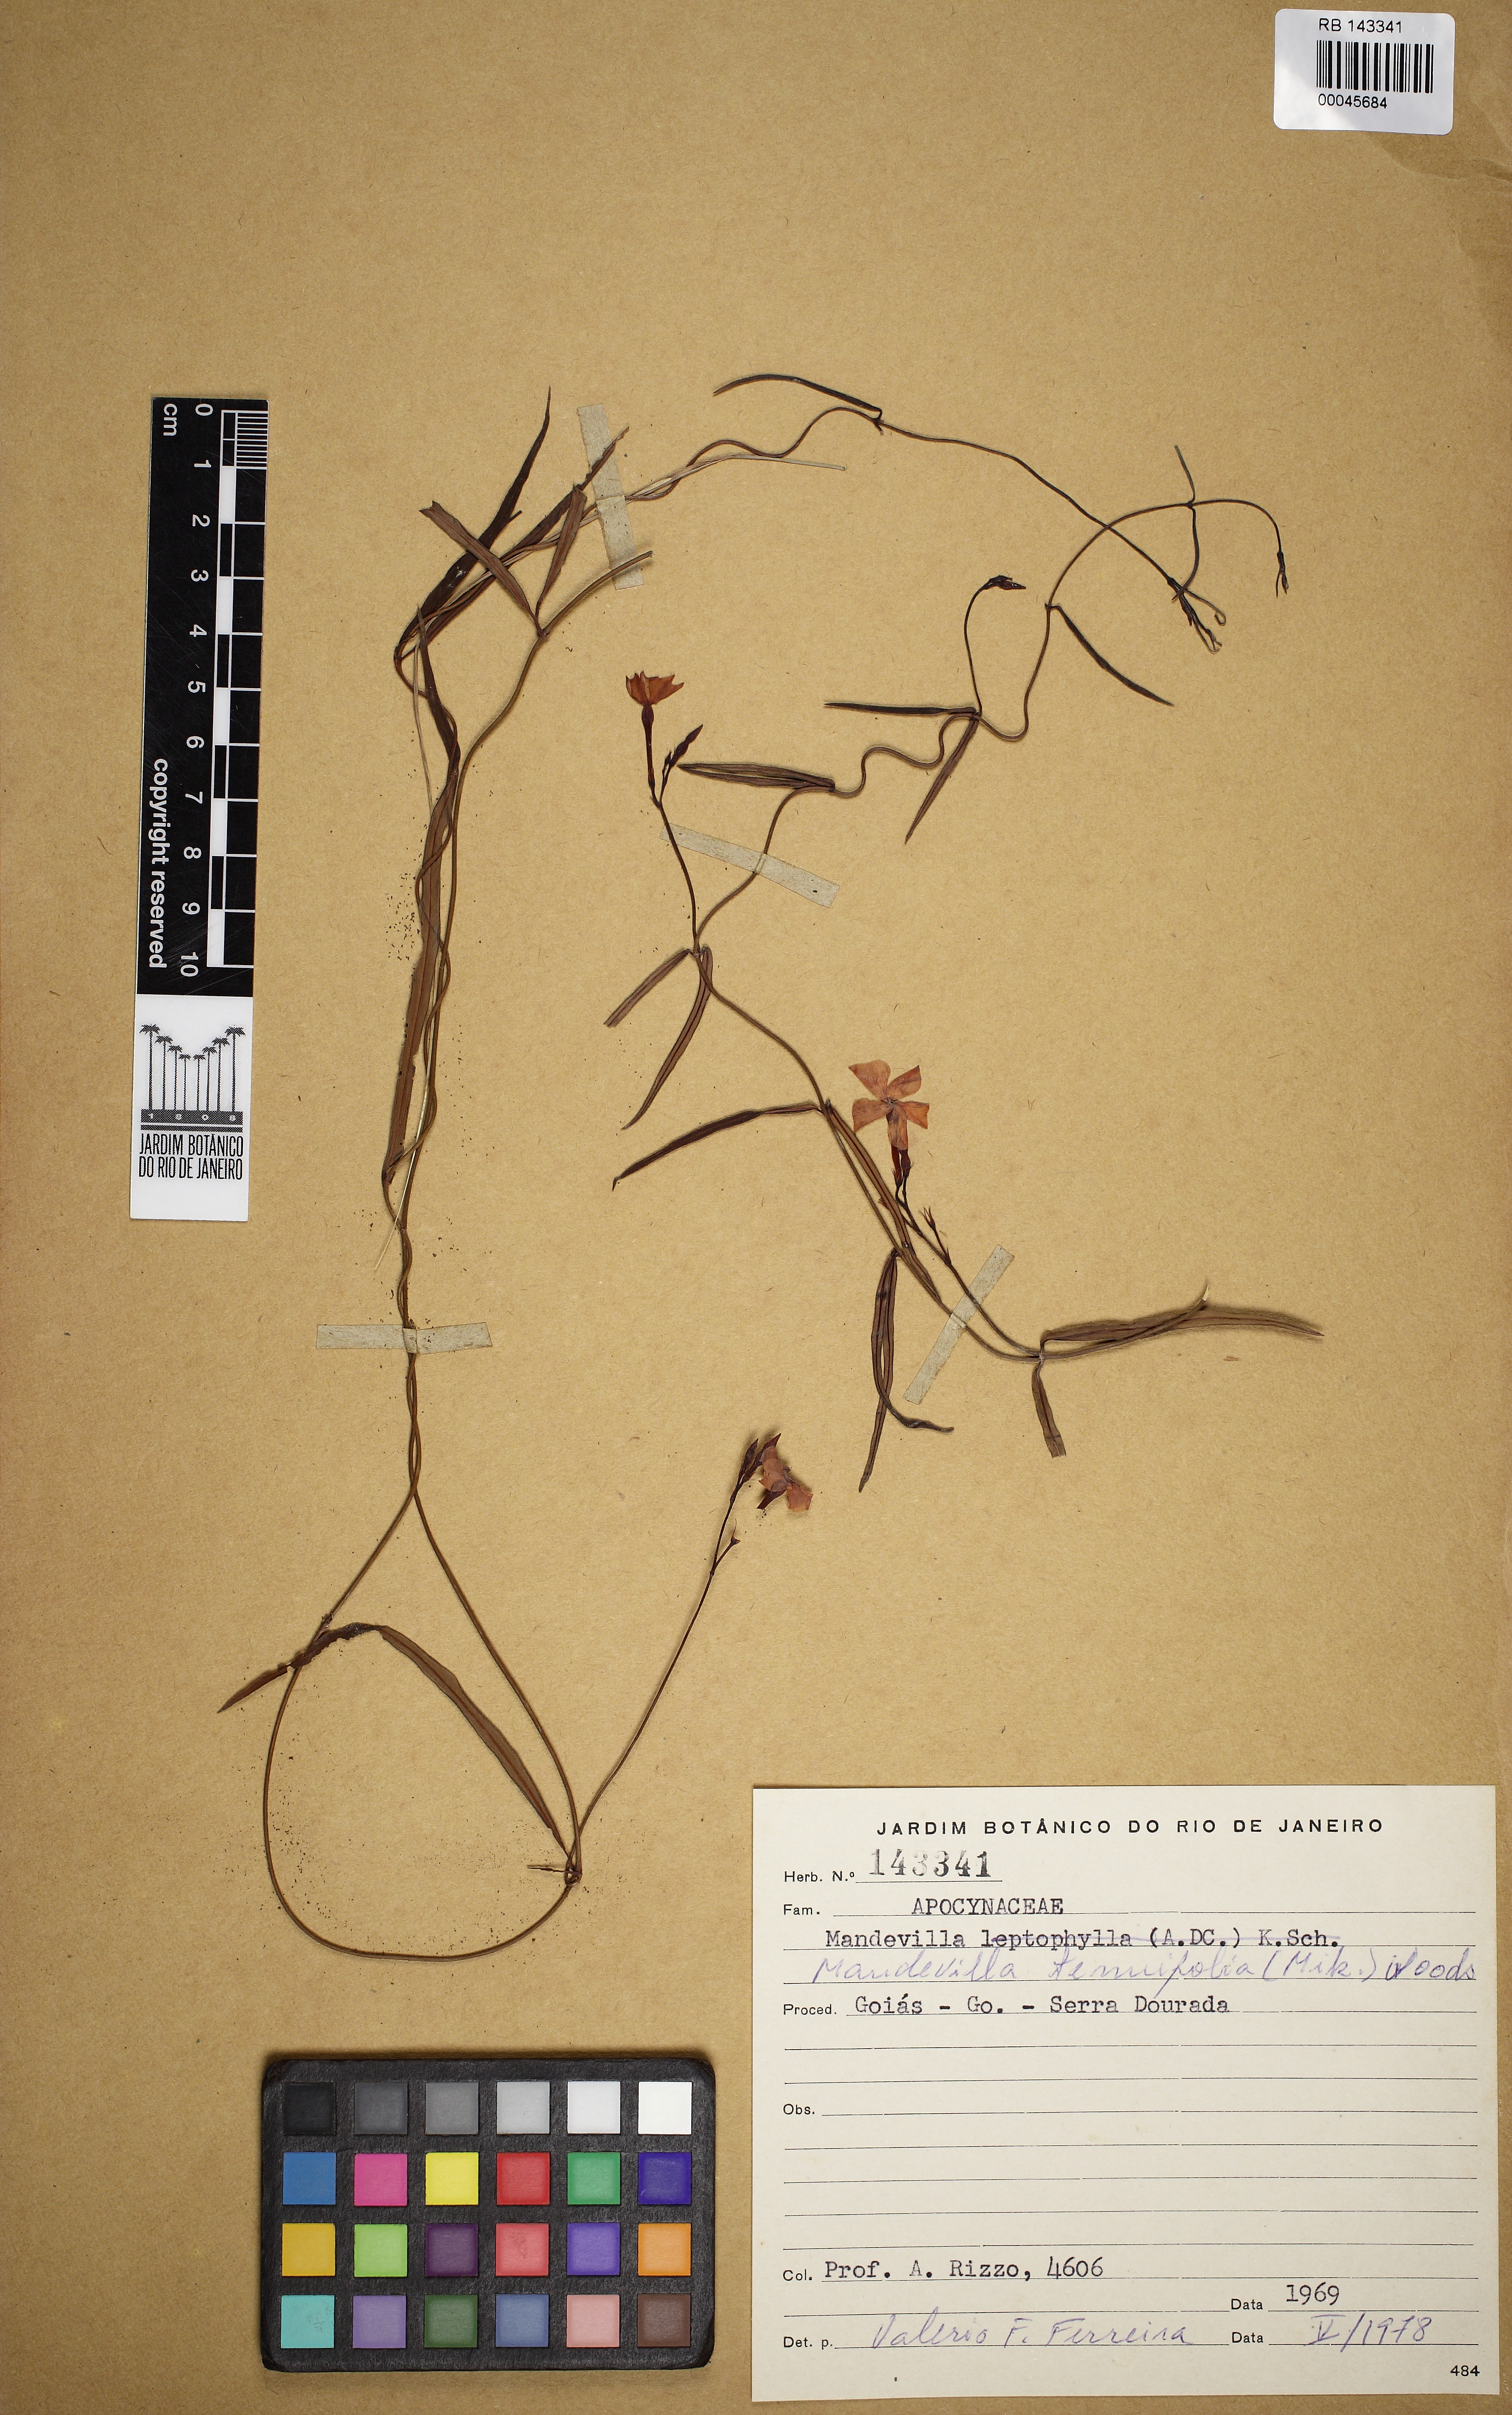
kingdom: Plantae
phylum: Tracheophyta
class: Magnoliopsida
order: Gentianales
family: Apocynaceae
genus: Mandevilla
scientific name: Mandevilla tenuifolia
